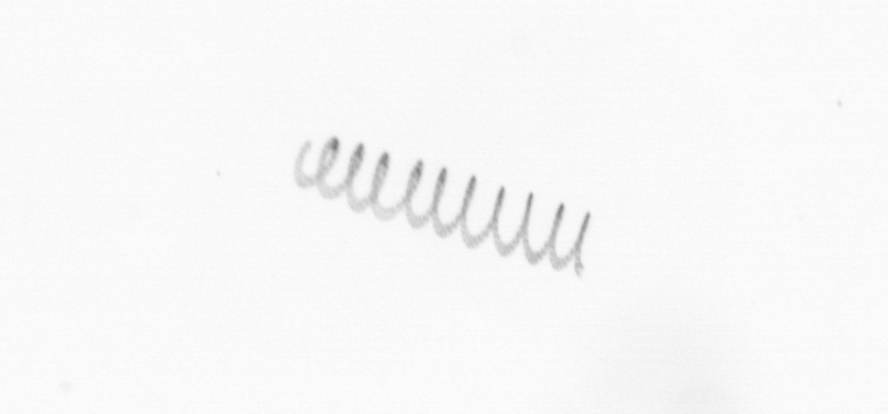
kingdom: Chromista
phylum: Ochrophyta
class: Bacillariophyceae
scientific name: Bacillariophyceae
